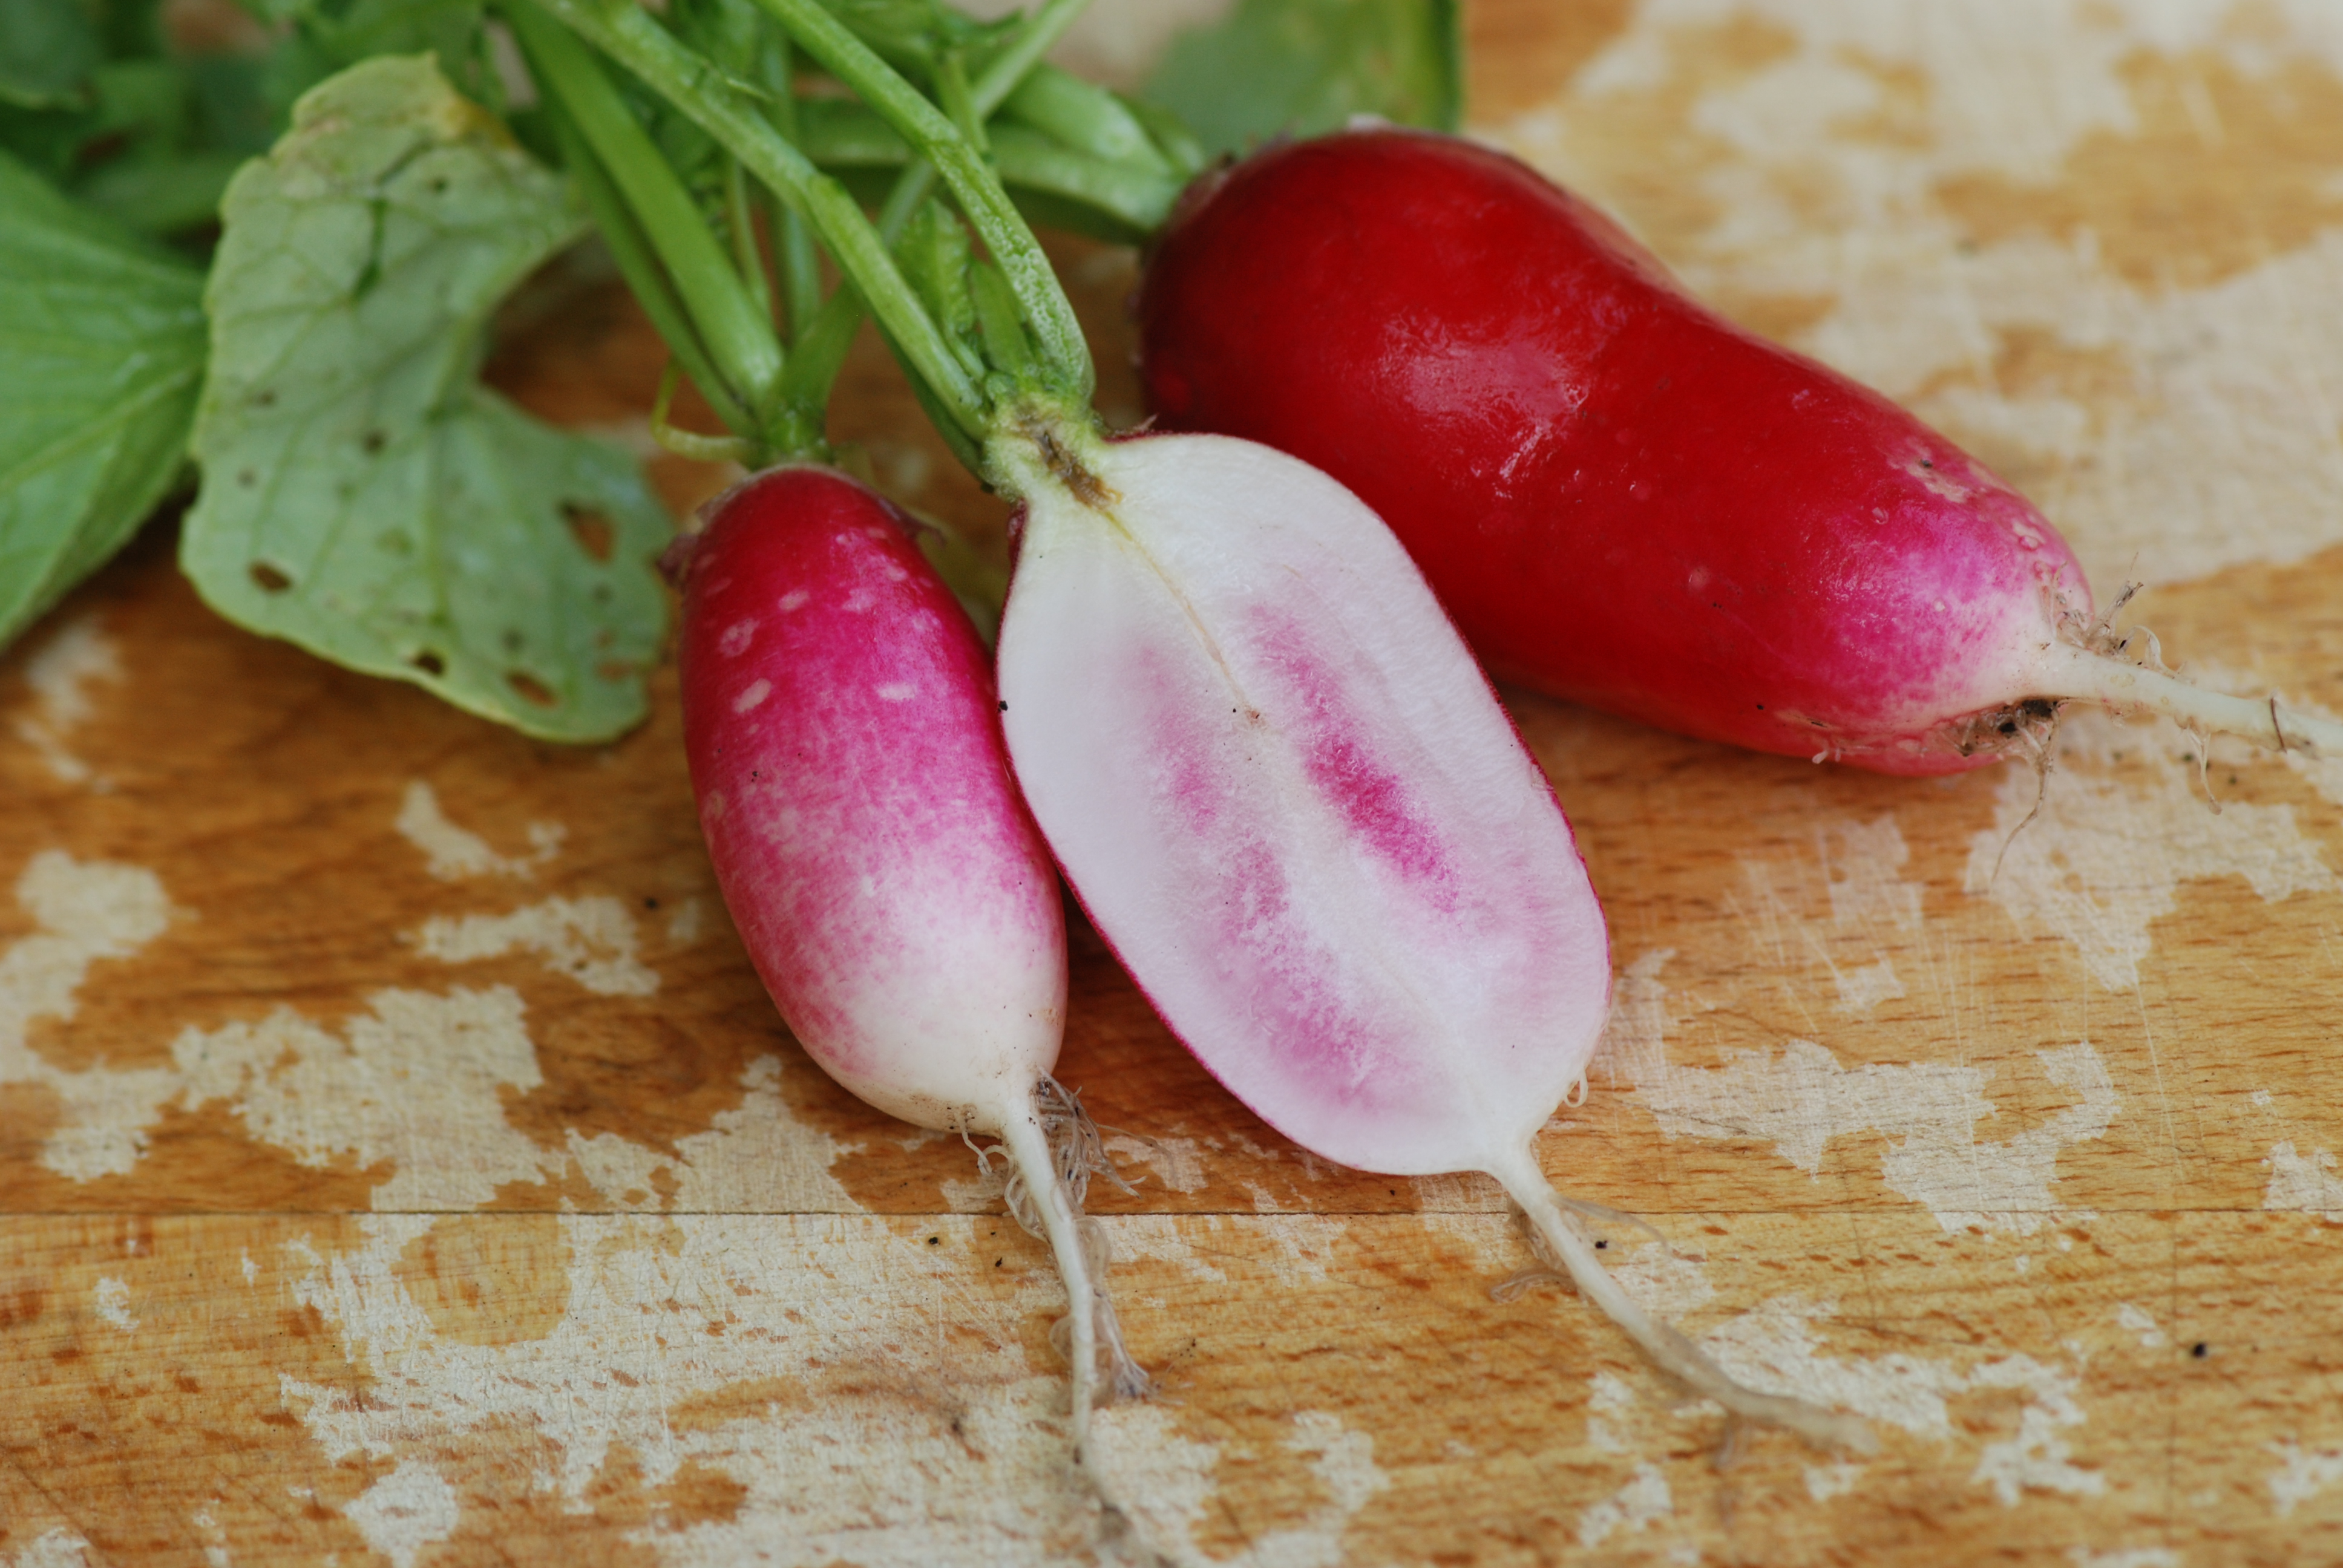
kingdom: Plantae
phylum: Tracheophyta
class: Magnoliopsida
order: Brassicales
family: Brassicaceae
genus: Raphanus
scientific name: Raphanus sativus
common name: Cultivated radish
